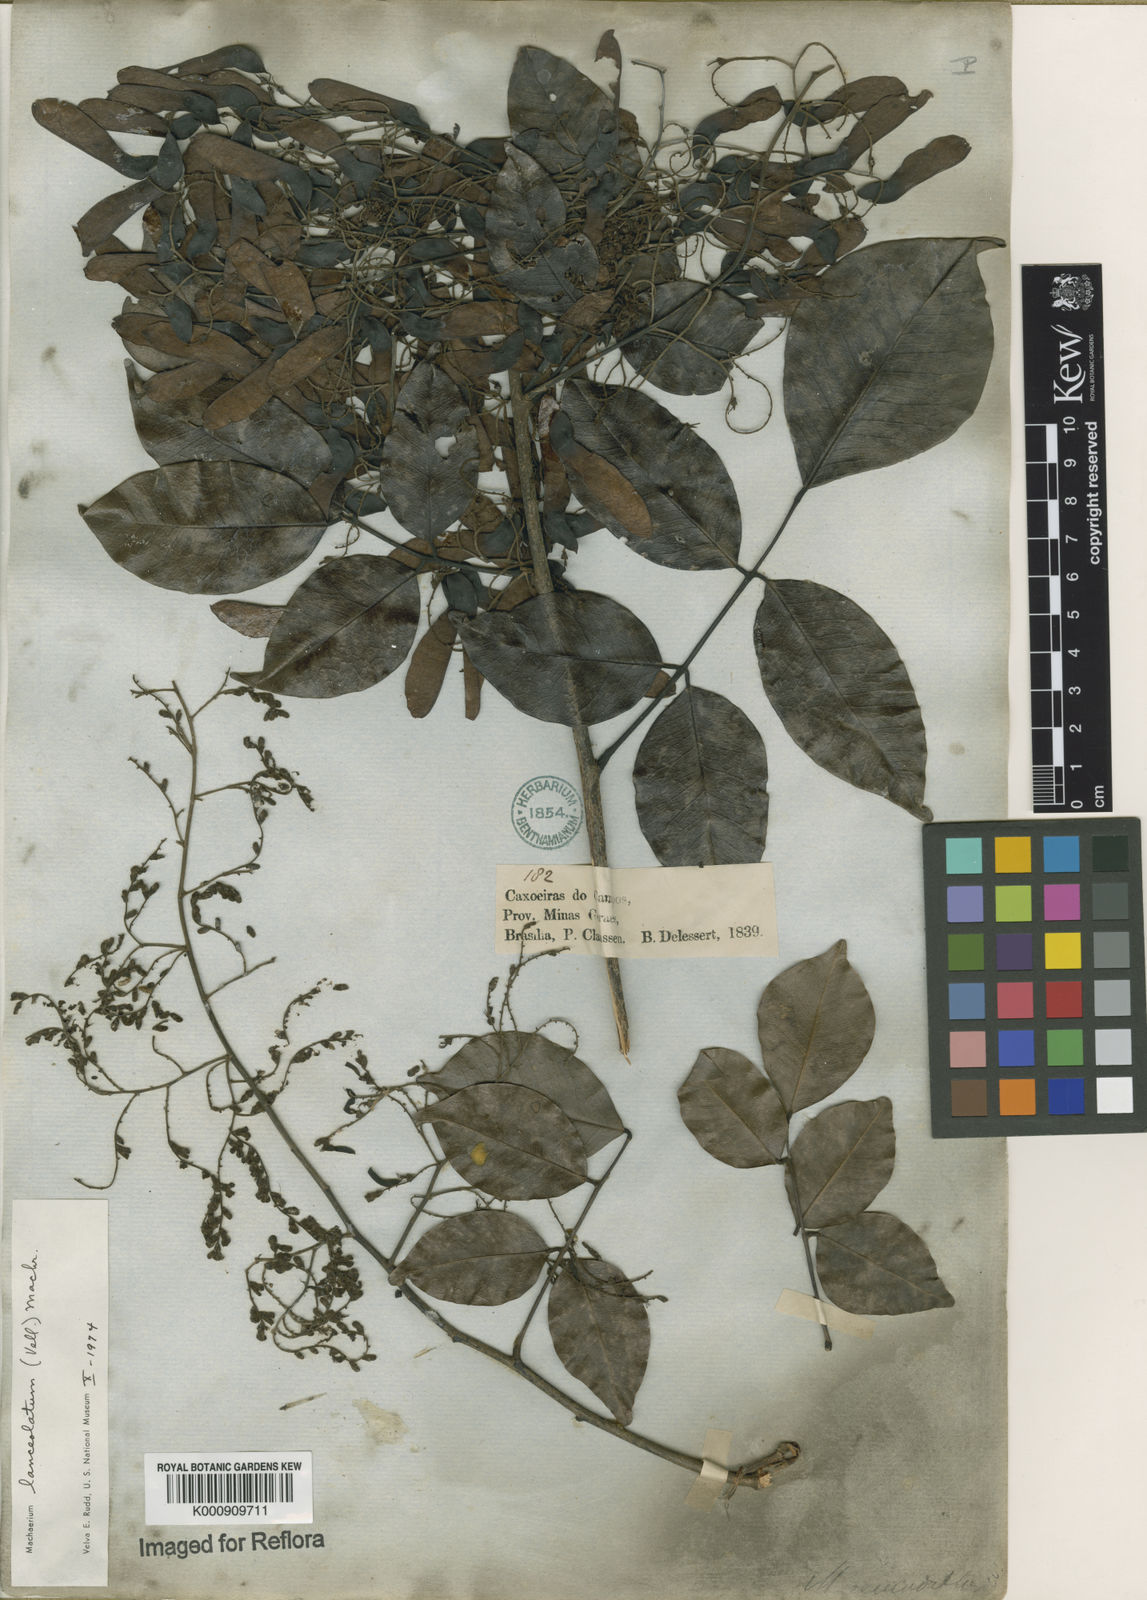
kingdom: Plantae
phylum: Tracheophyta
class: Magnoliopsida
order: Fabales
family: Fabaceae
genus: Machaerium
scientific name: Machaerium lanceolatum
